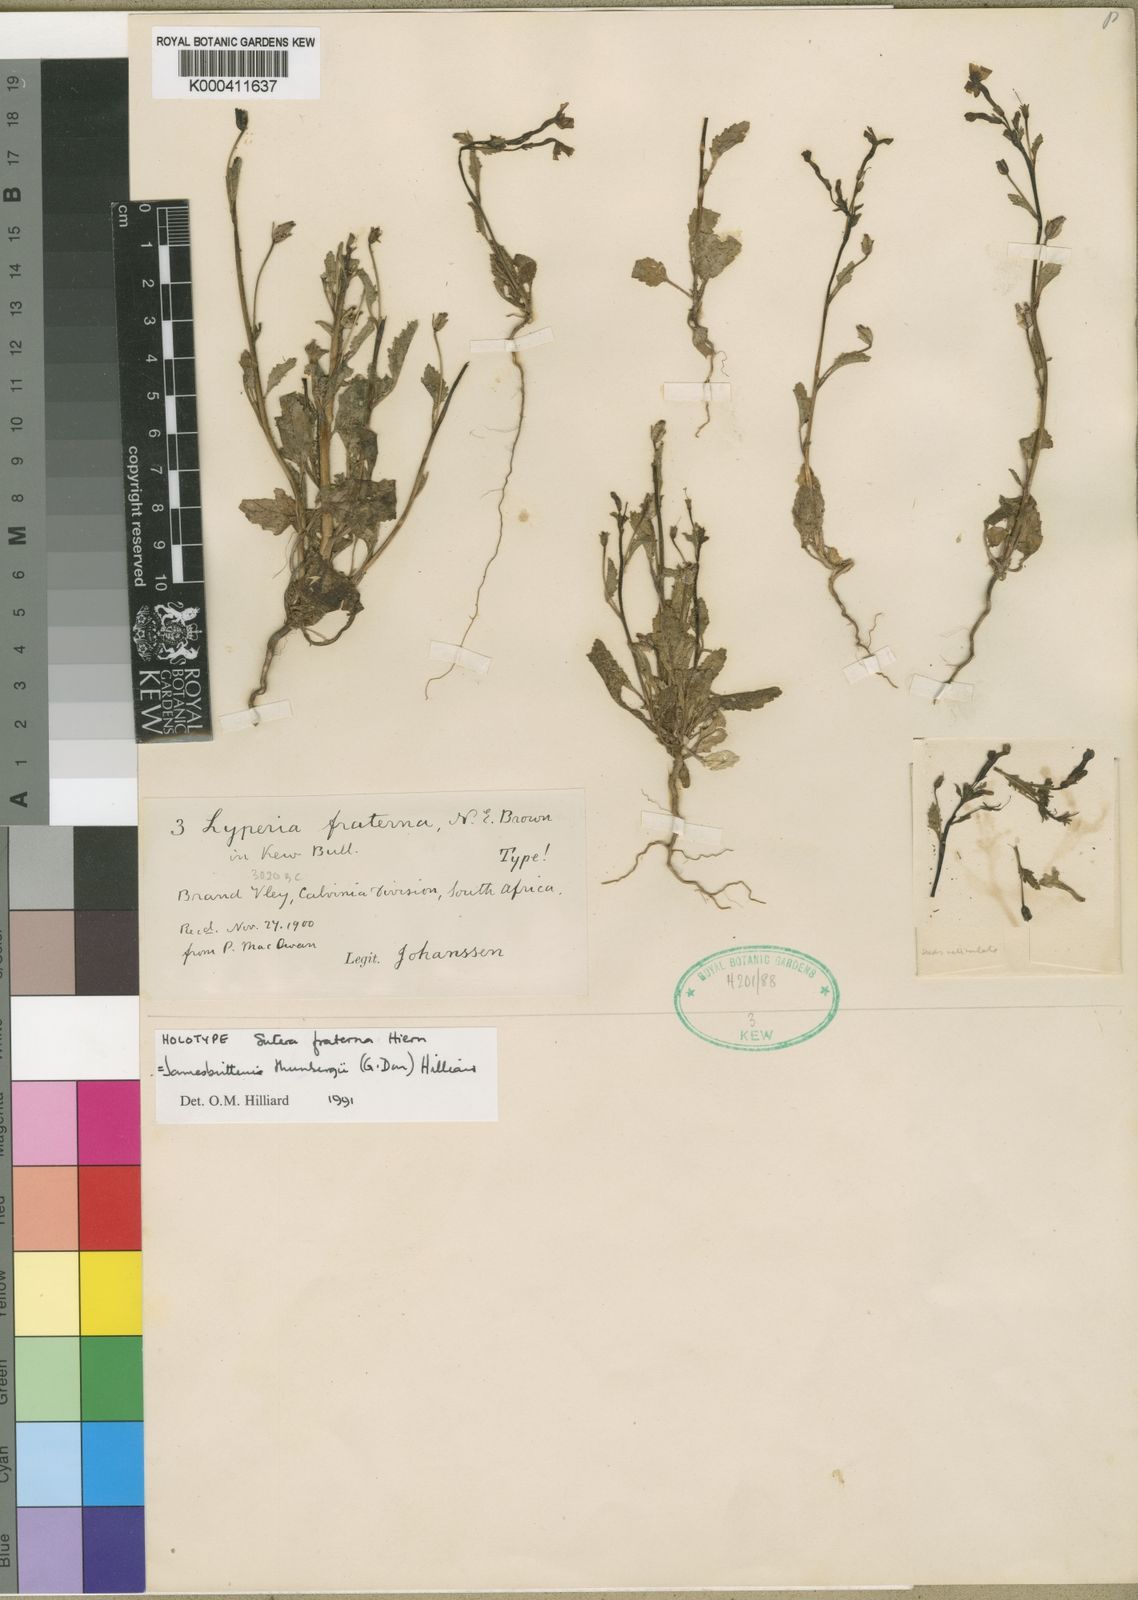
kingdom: Plantae
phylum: Tracheophyta
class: Magnoliopsida
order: Lamiales
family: Scrophulariaceae
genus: Jamesbrittenia
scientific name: Jamesbrittenia thunbergii
